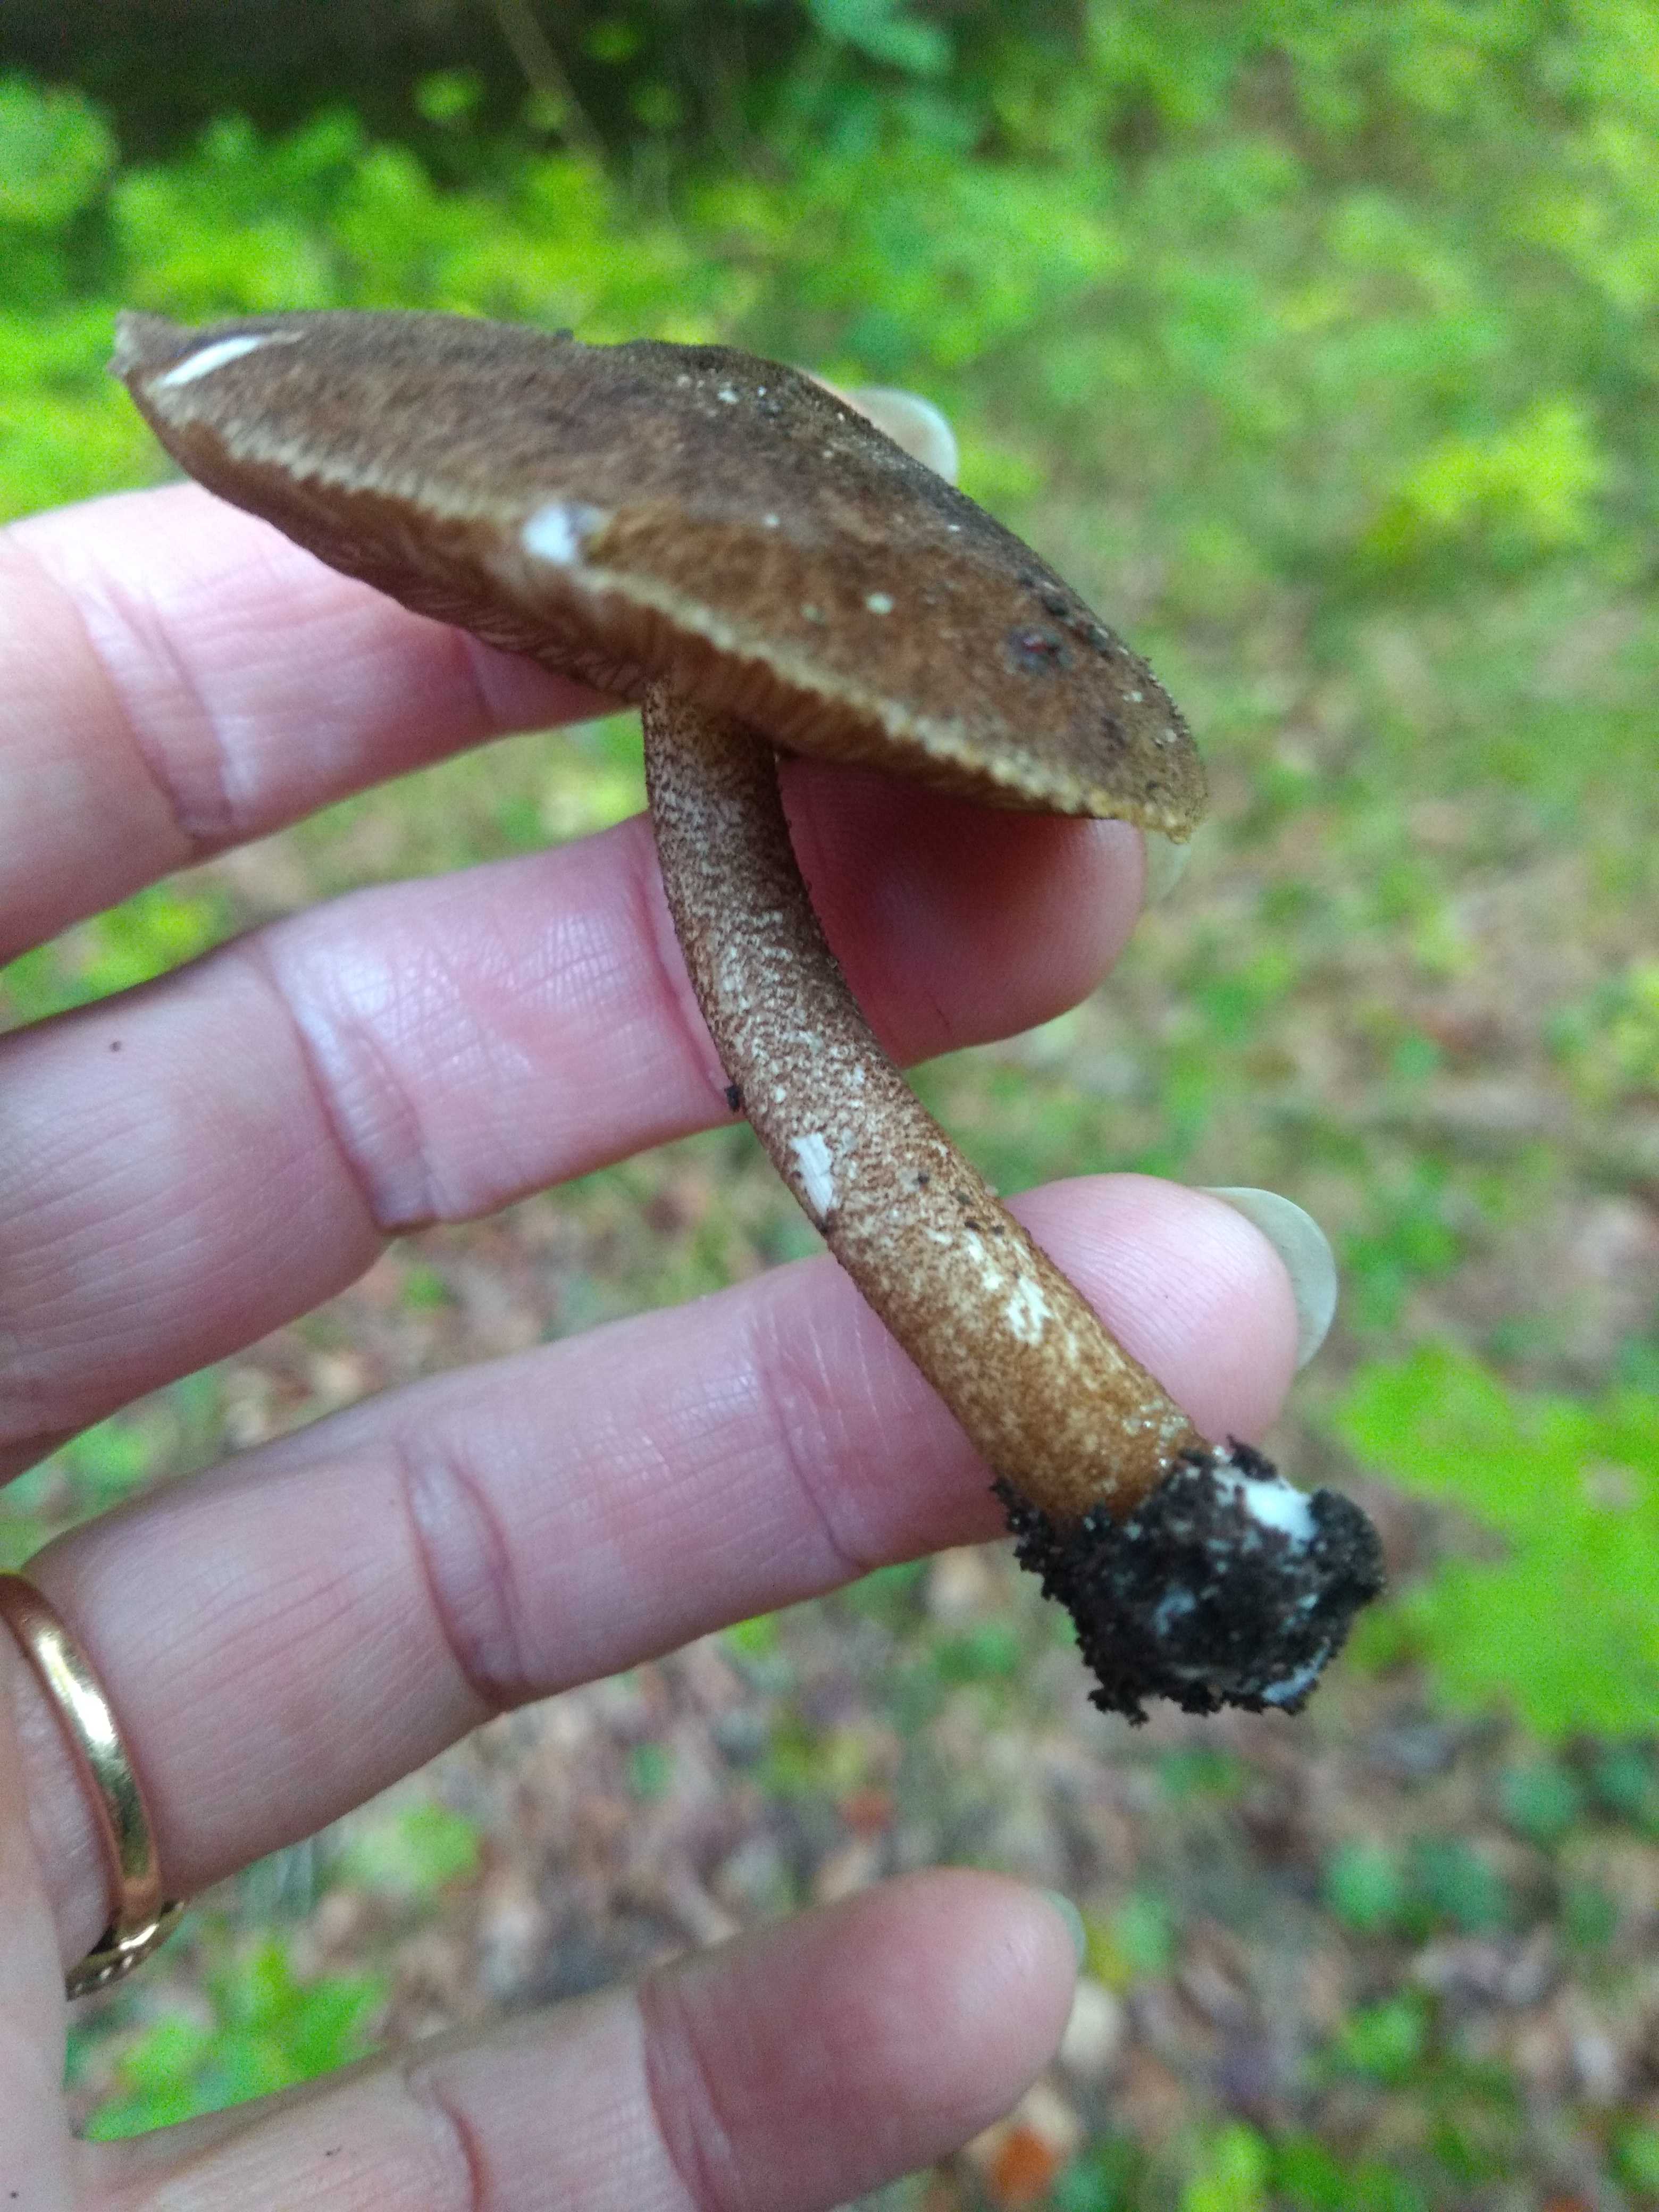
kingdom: Fungi
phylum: Basidiomycota
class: Agaricomycetes
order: Agaricales
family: Pluteaceae
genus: Pluteus
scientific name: Pluteus umbrosus
